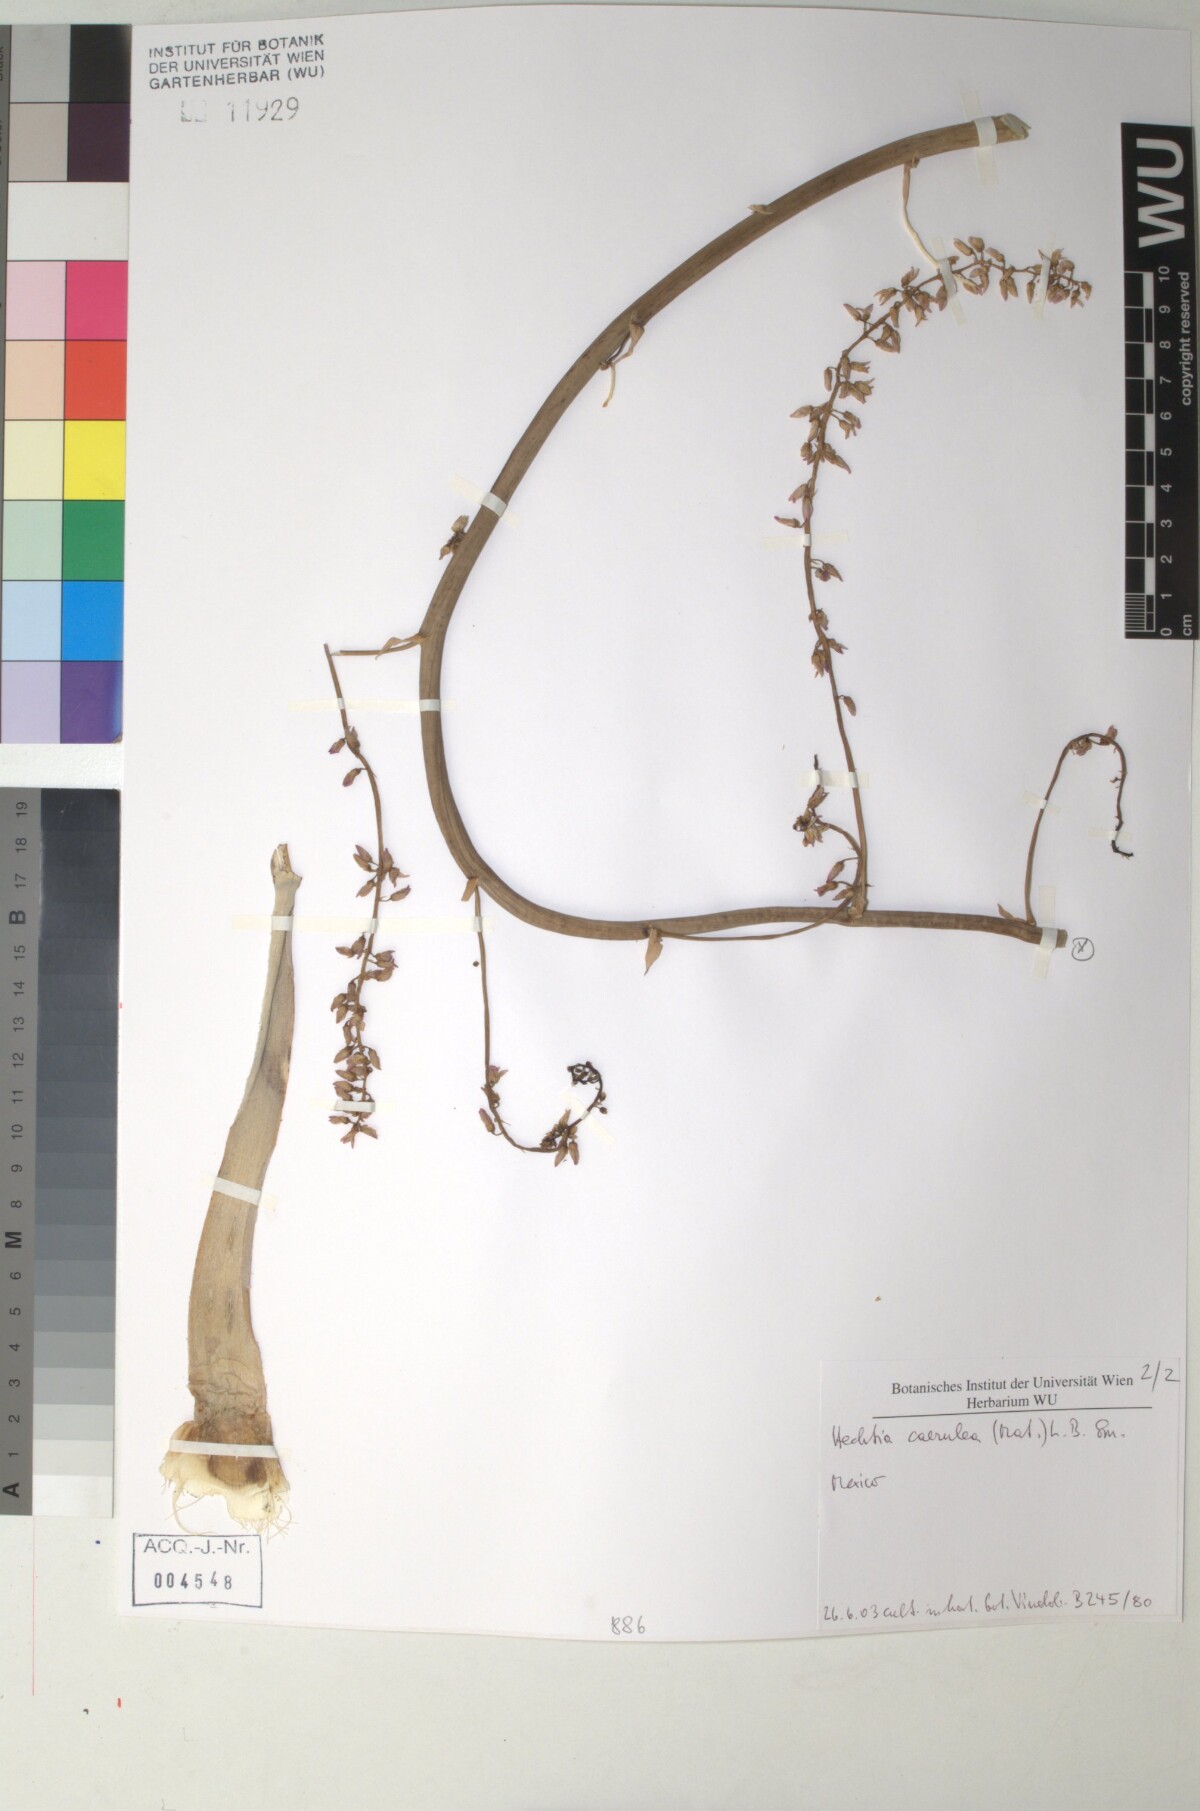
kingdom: Plantae
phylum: Tracheophyta
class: Liliopsida
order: Poales
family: Bromeliaceae
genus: Hechtia
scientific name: Hechtia
